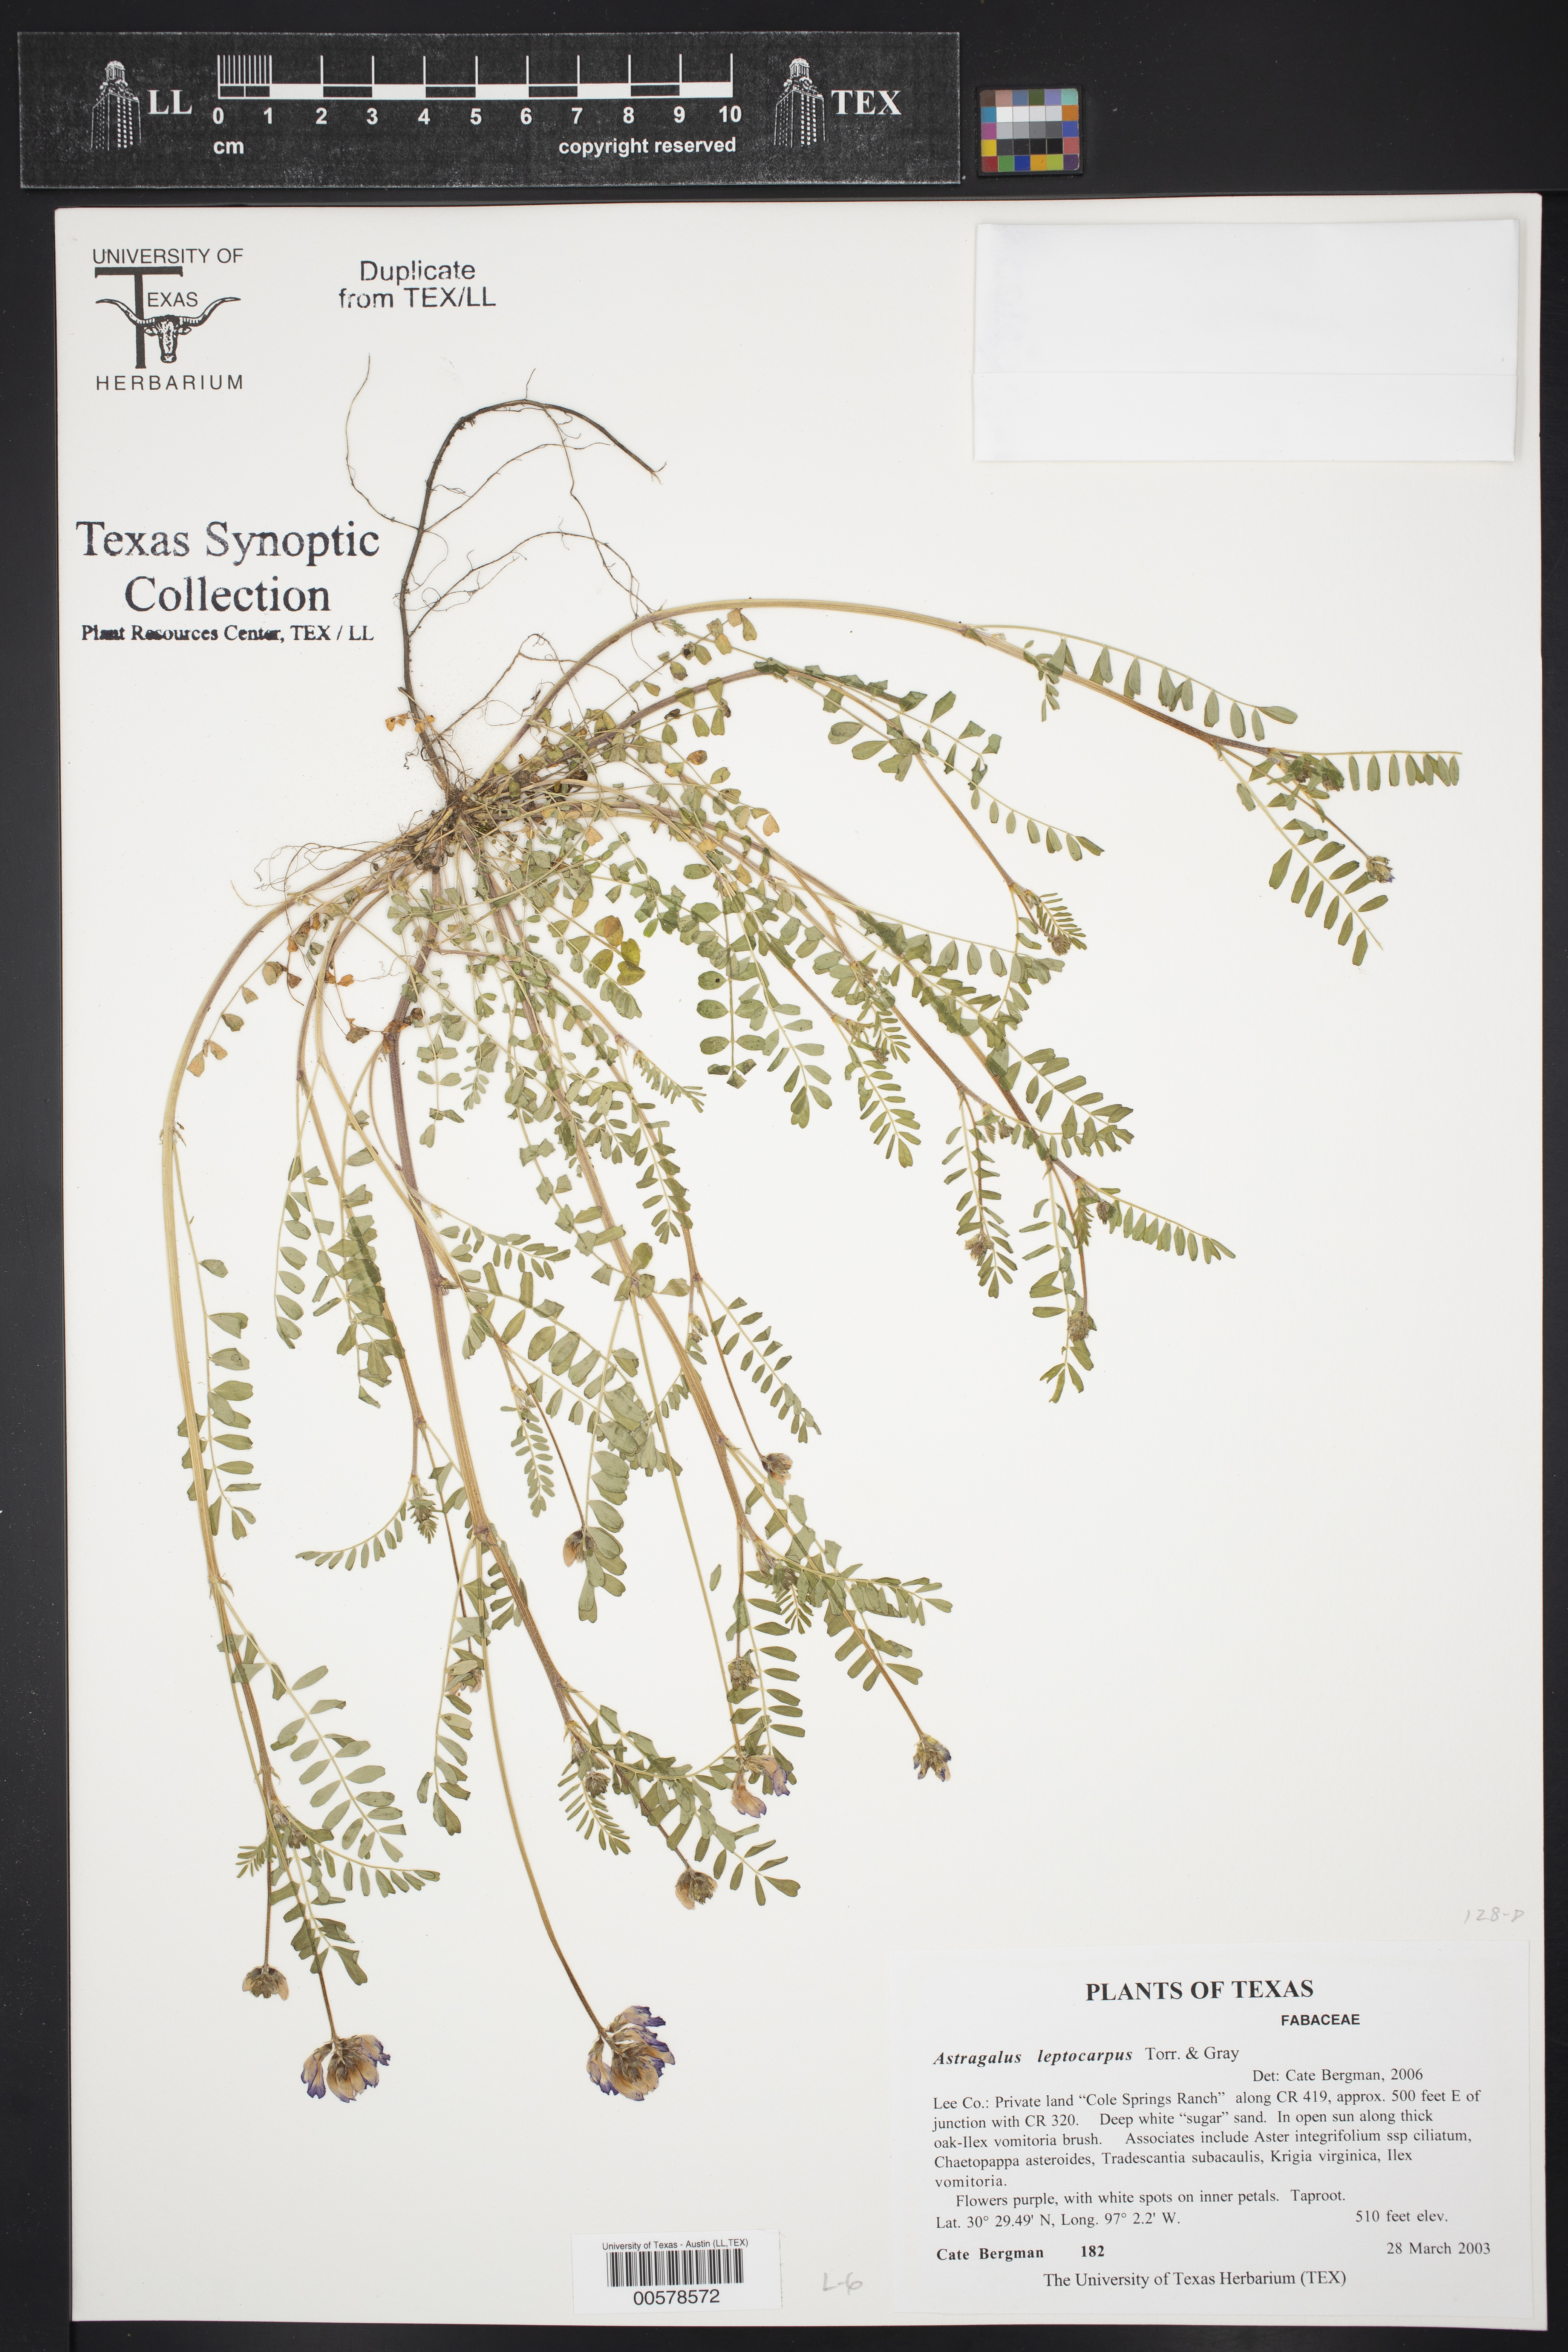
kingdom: Plantae
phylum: Tracheophyta
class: Magnoliopsida
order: Fabales
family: Fabaceae
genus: Astragalus
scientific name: Astragalus leptocarpus
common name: Bodkin milk-vetch
